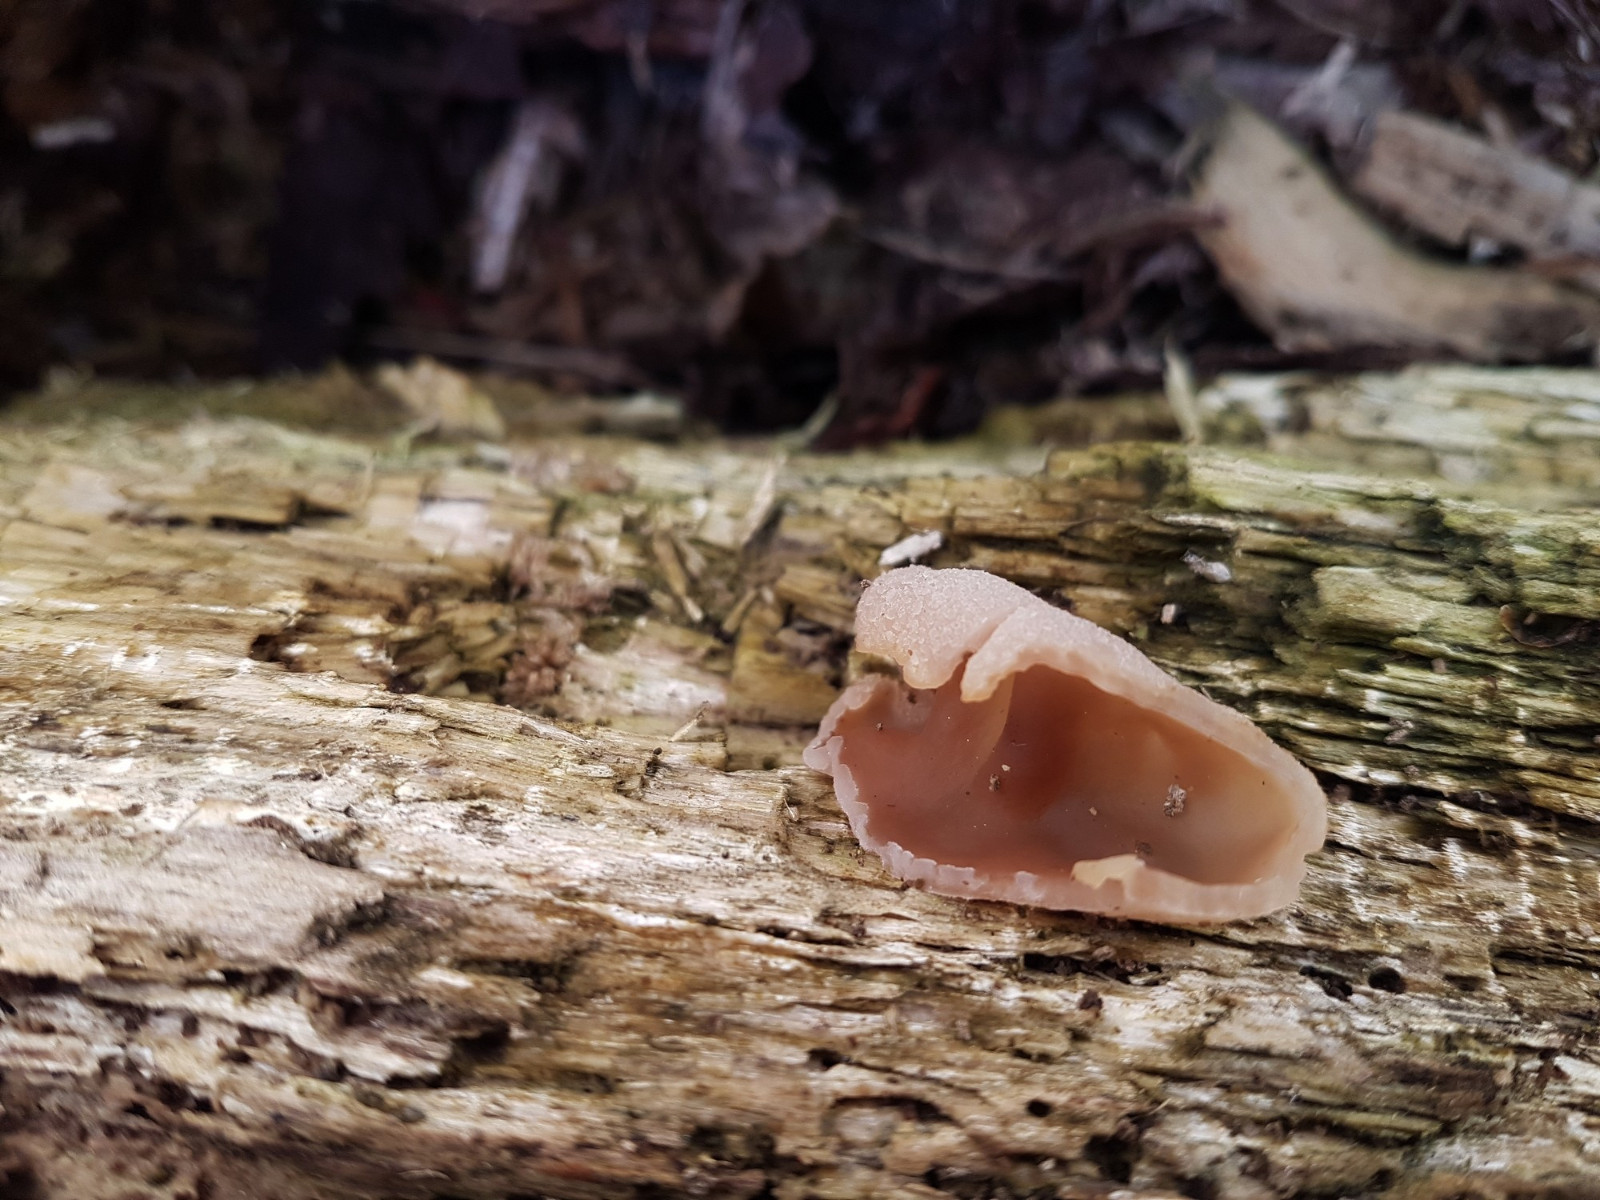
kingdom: Fungi
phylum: Ascomycota
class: Pezizomycetes
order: Pezizales
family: Pezizaceae
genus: Peziza
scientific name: Peziza varia
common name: Ved-bægersvamp
